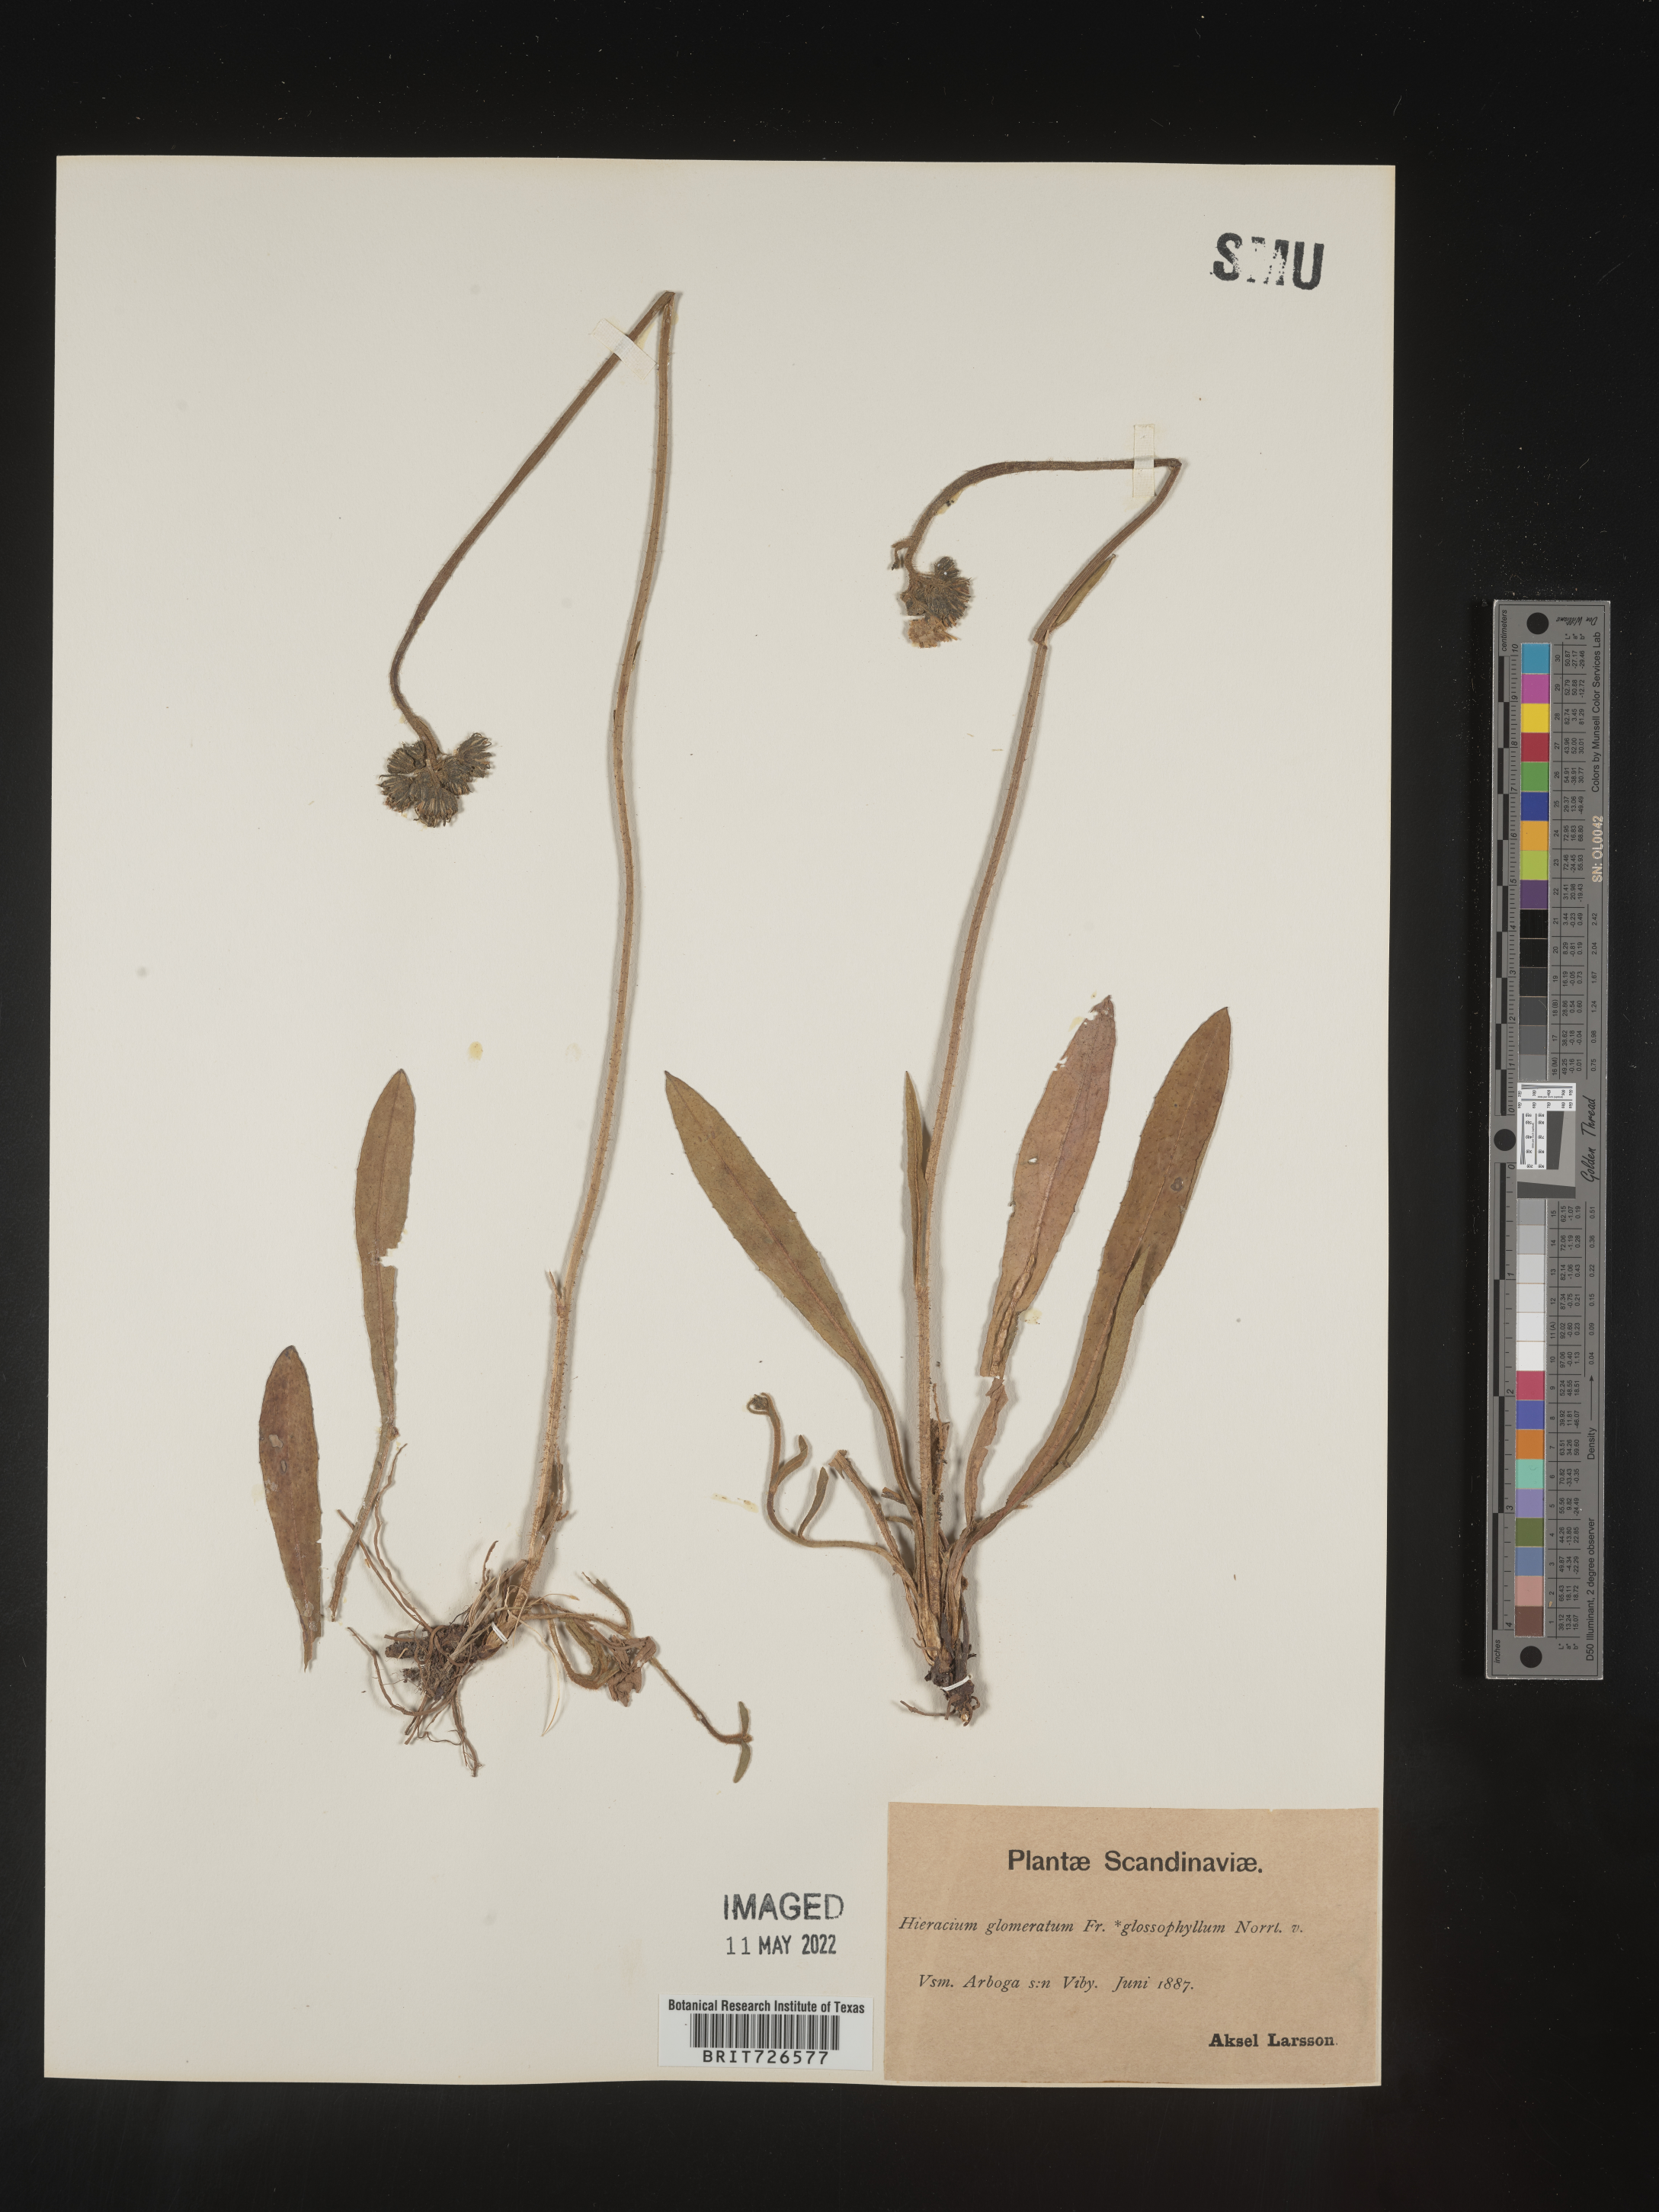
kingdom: Plantae
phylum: Tracheophyta
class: Magnoliopsida
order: Asterales
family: Asteraceae
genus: Hieracium
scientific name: Hieracium
